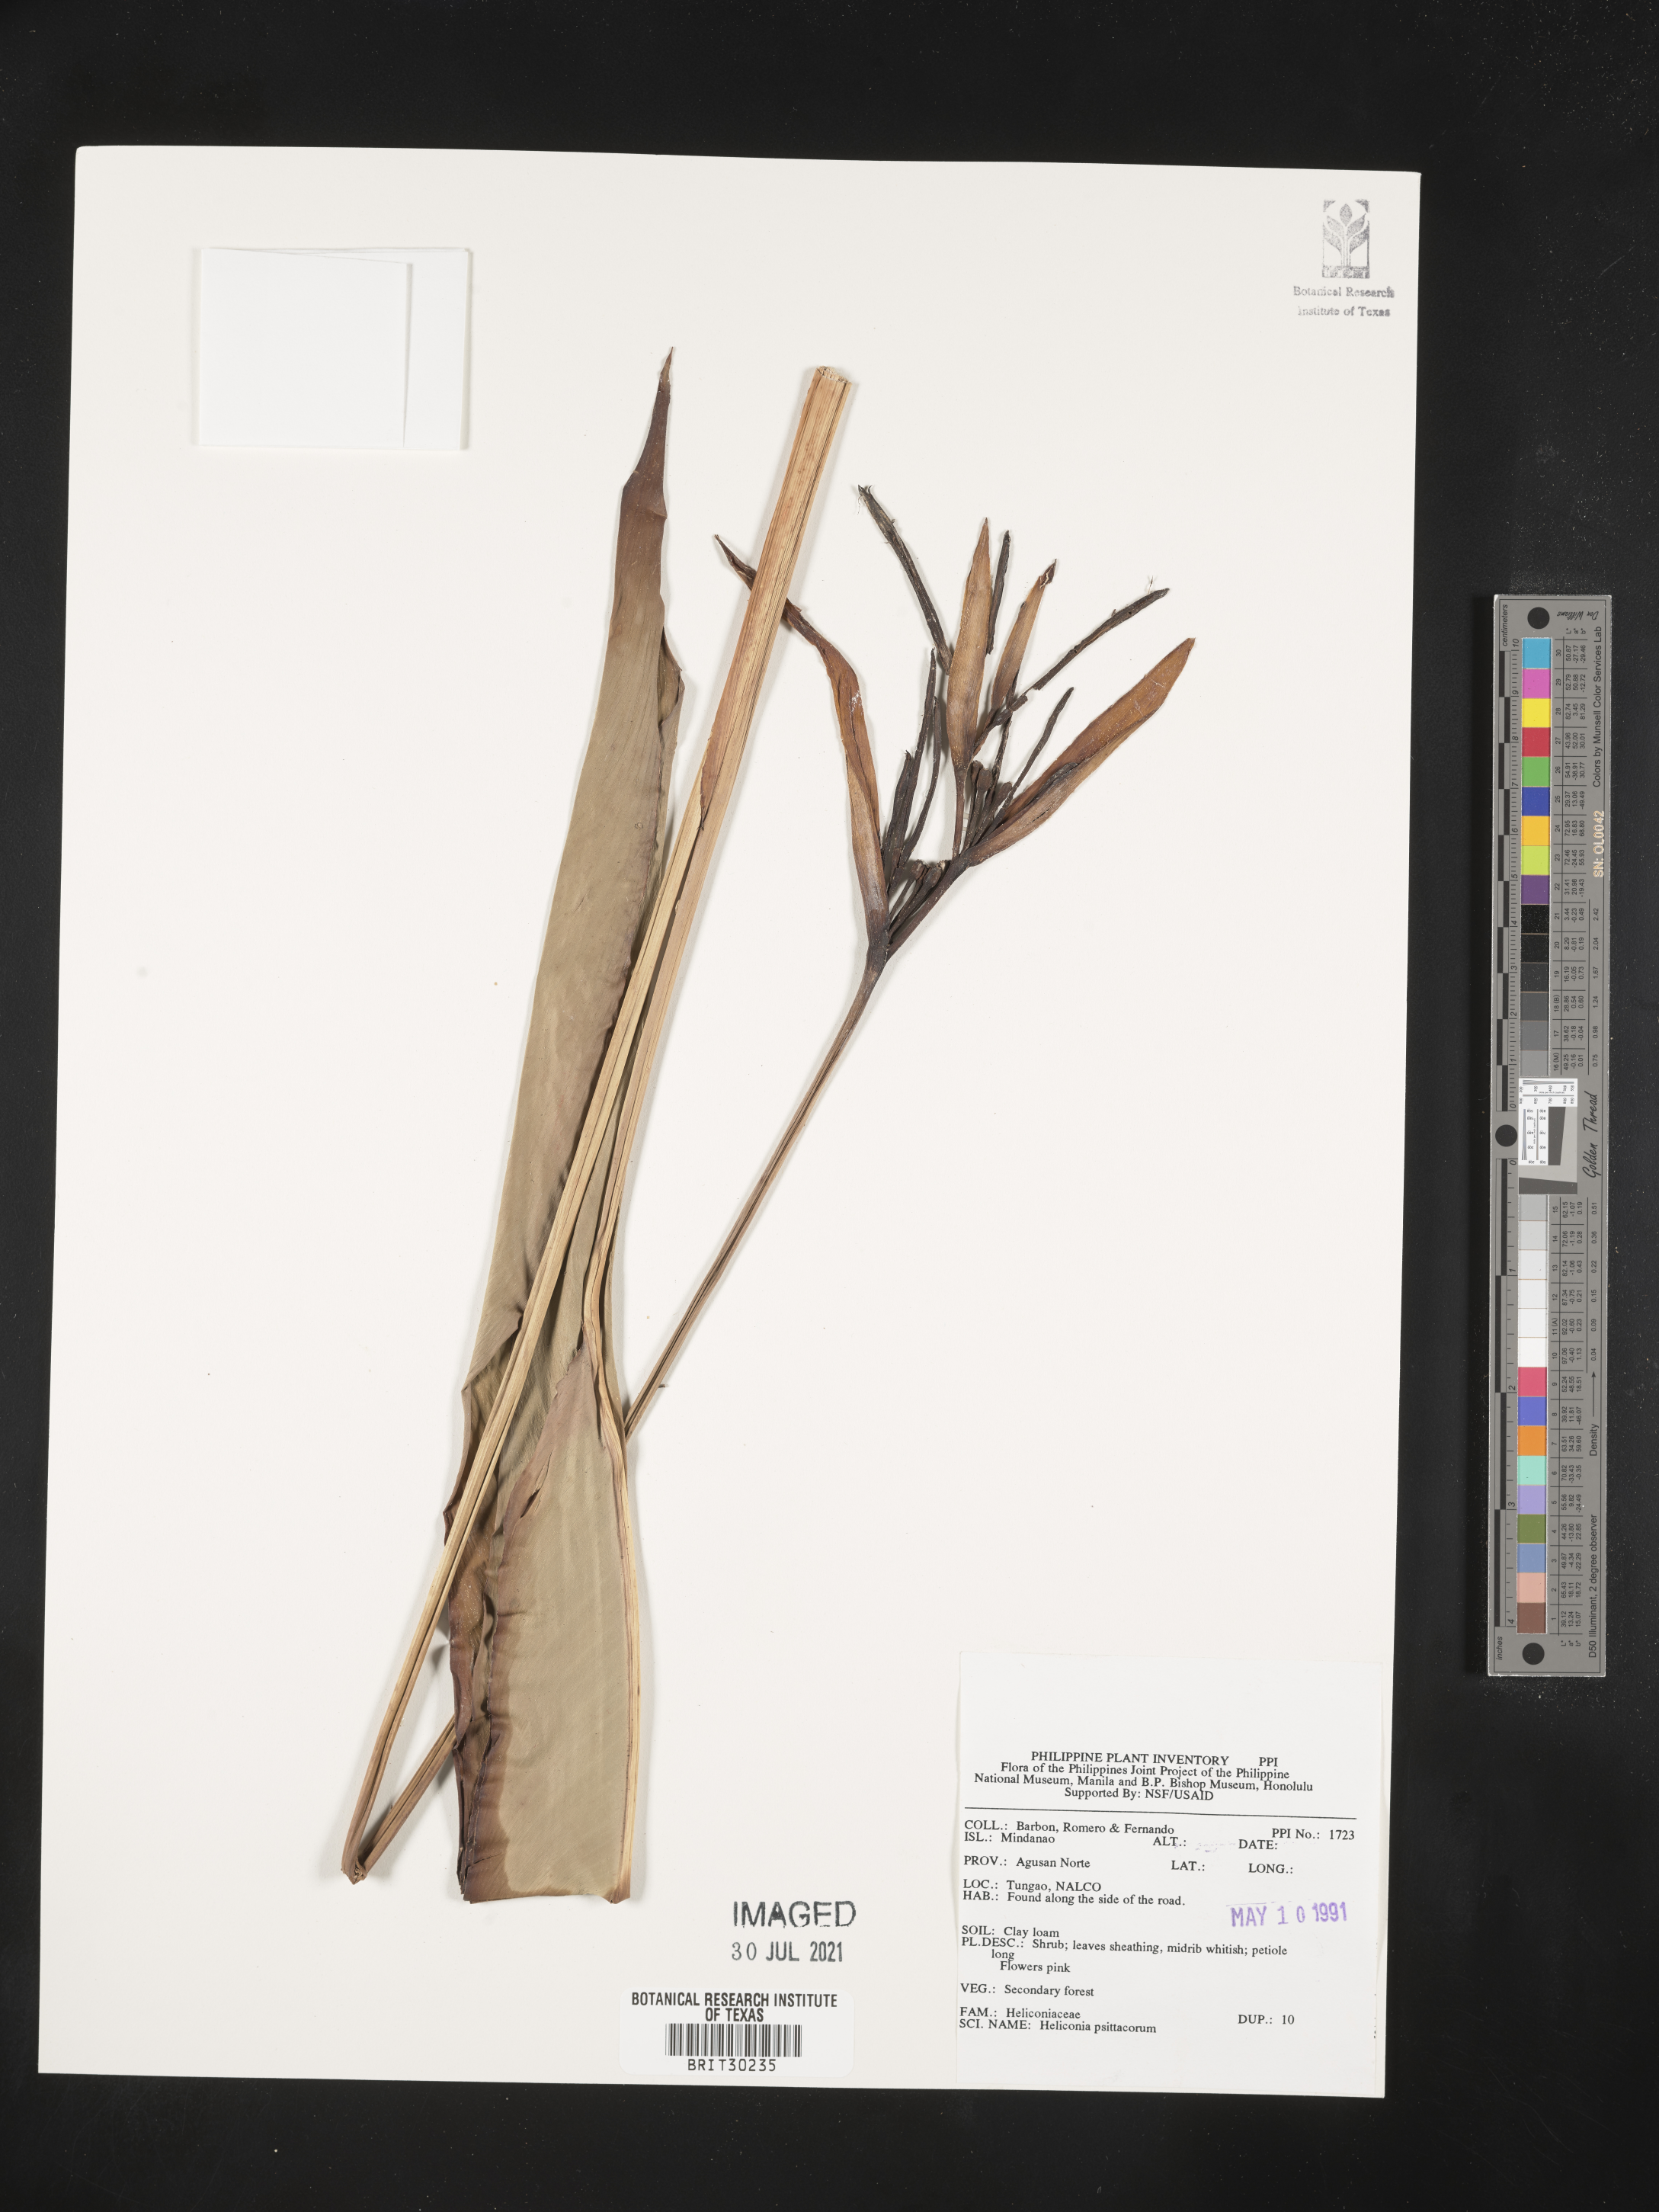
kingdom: Plantae
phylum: Tracheophyta
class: Liliopsida
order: Zingiberales
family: Heliconiaceae
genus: Heliconia
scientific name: Heliconia psittacorum
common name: Parrot's-flower
